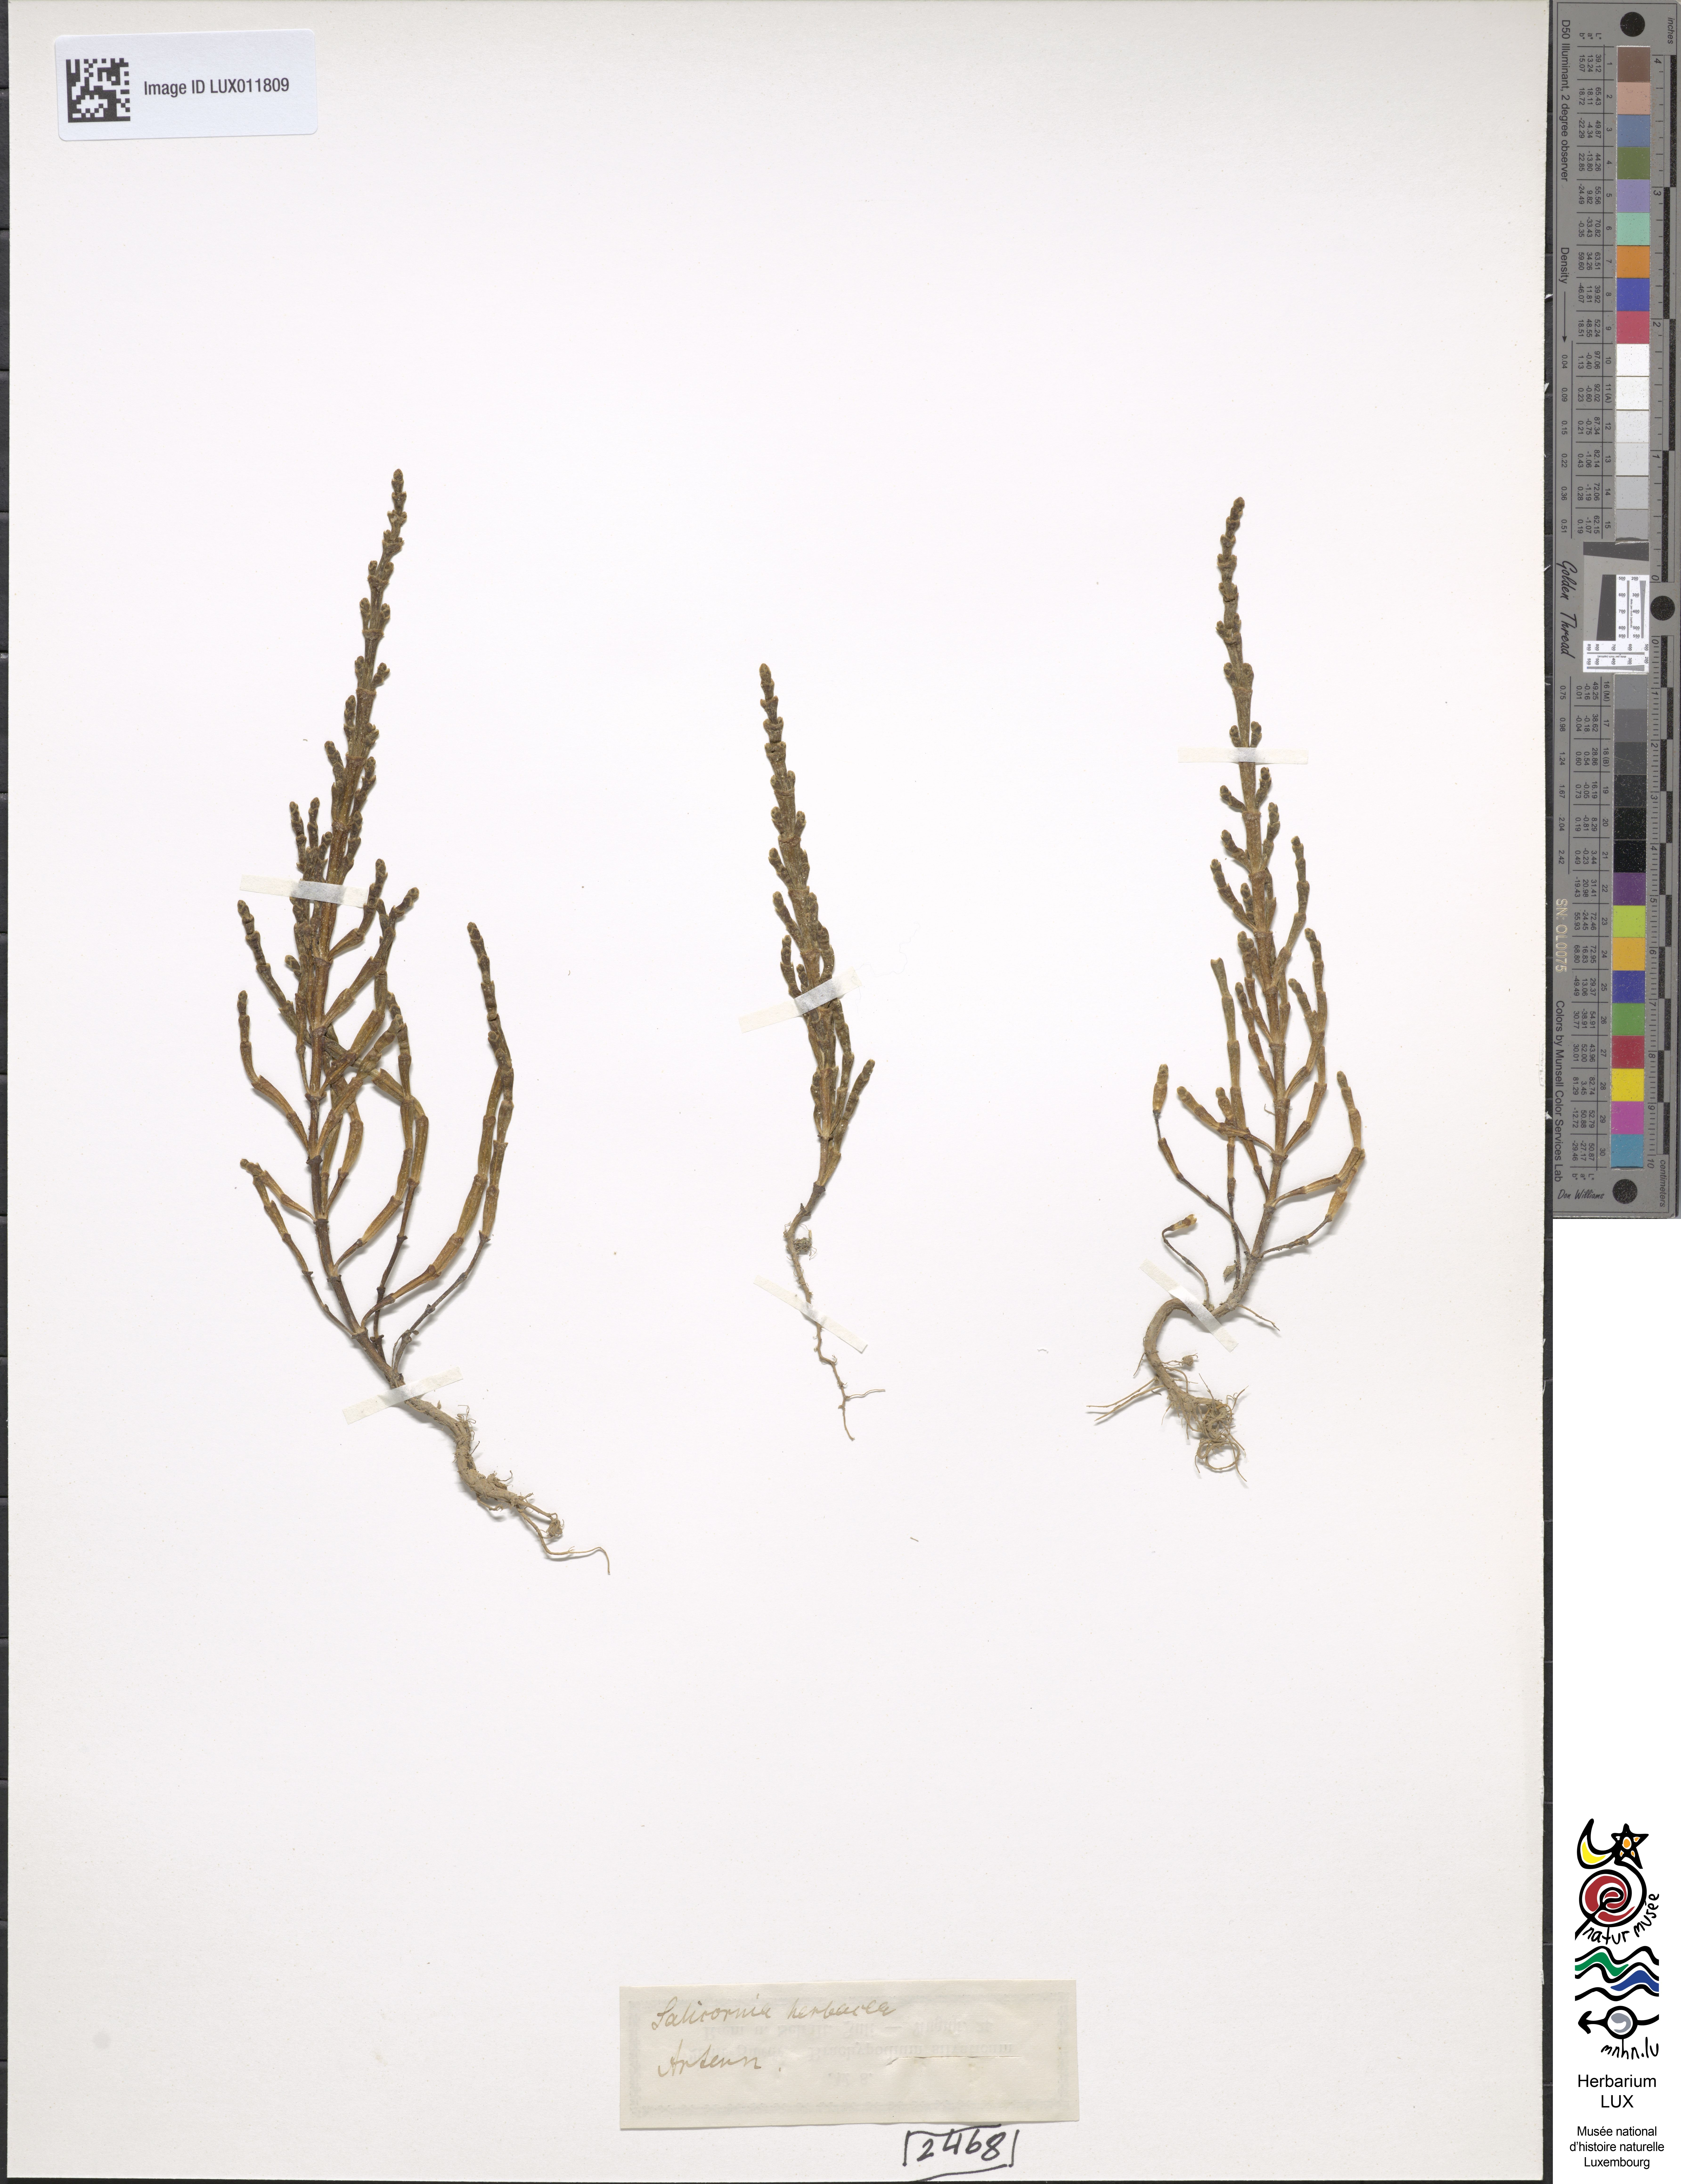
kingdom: Plantae
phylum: Tracheophyta
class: Magnoliopsida
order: Caryophyllales
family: Amaranthaceae
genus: Salicornia
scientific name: Salicornia europaea
